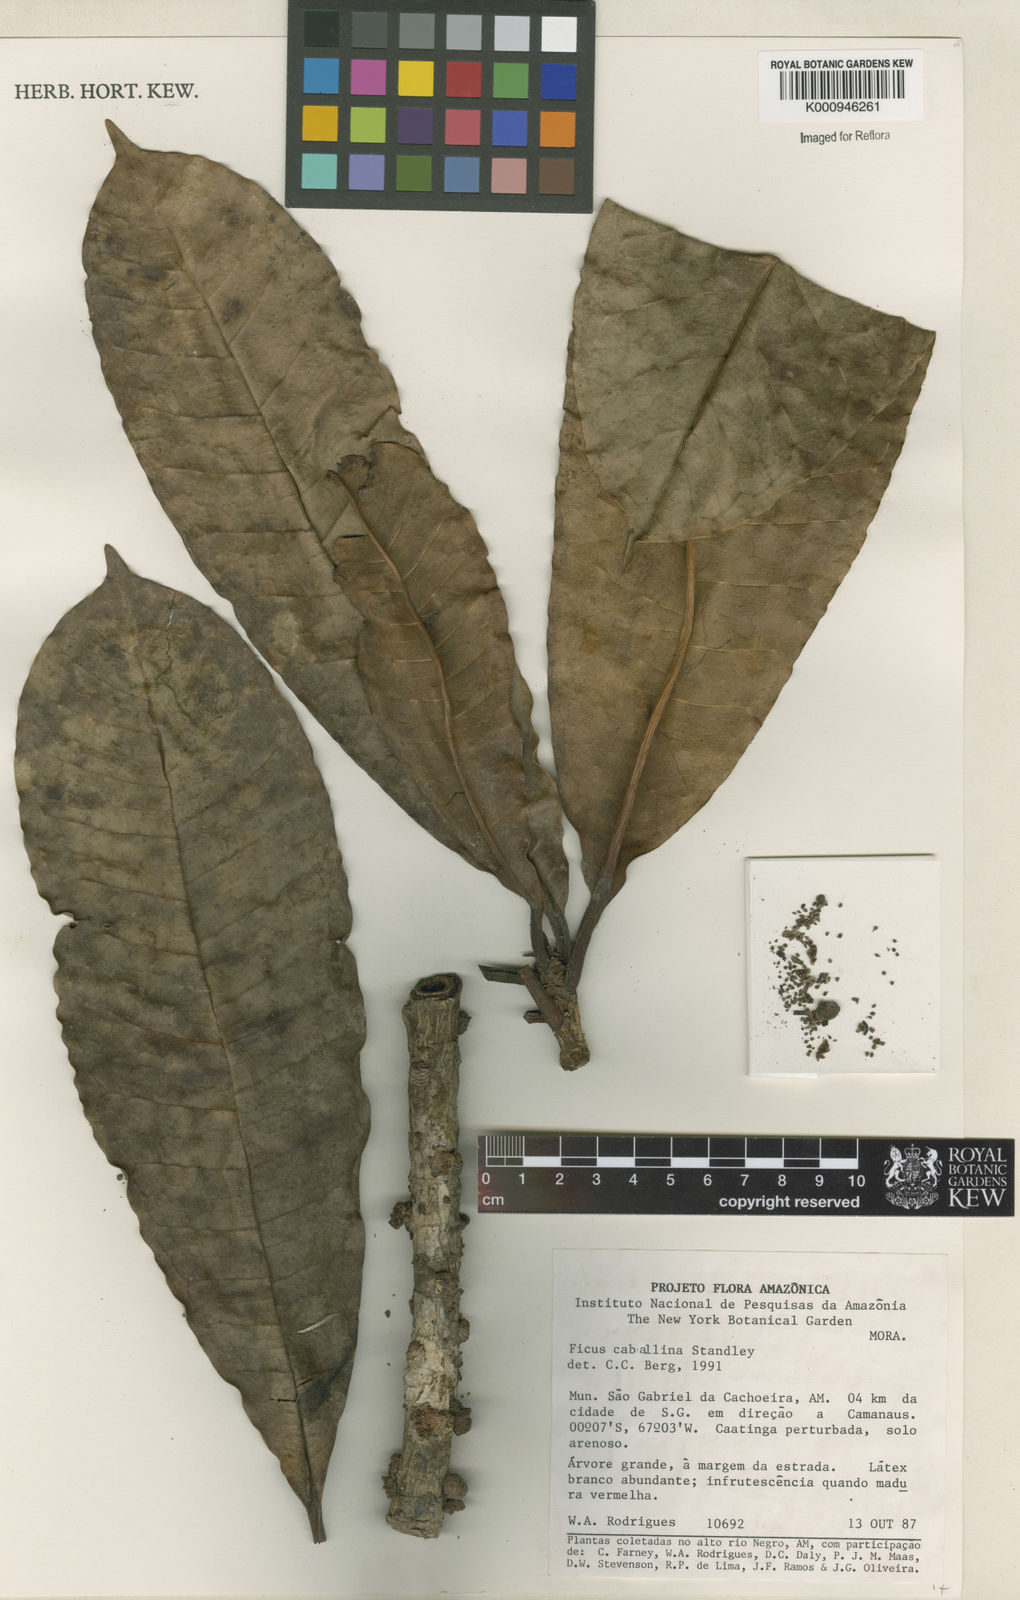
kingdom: Plantae
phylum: Tracheophyta
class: Magnoliopsida
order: Rosales
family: Moraceae
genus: Ficus
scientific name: Ficus caballina
